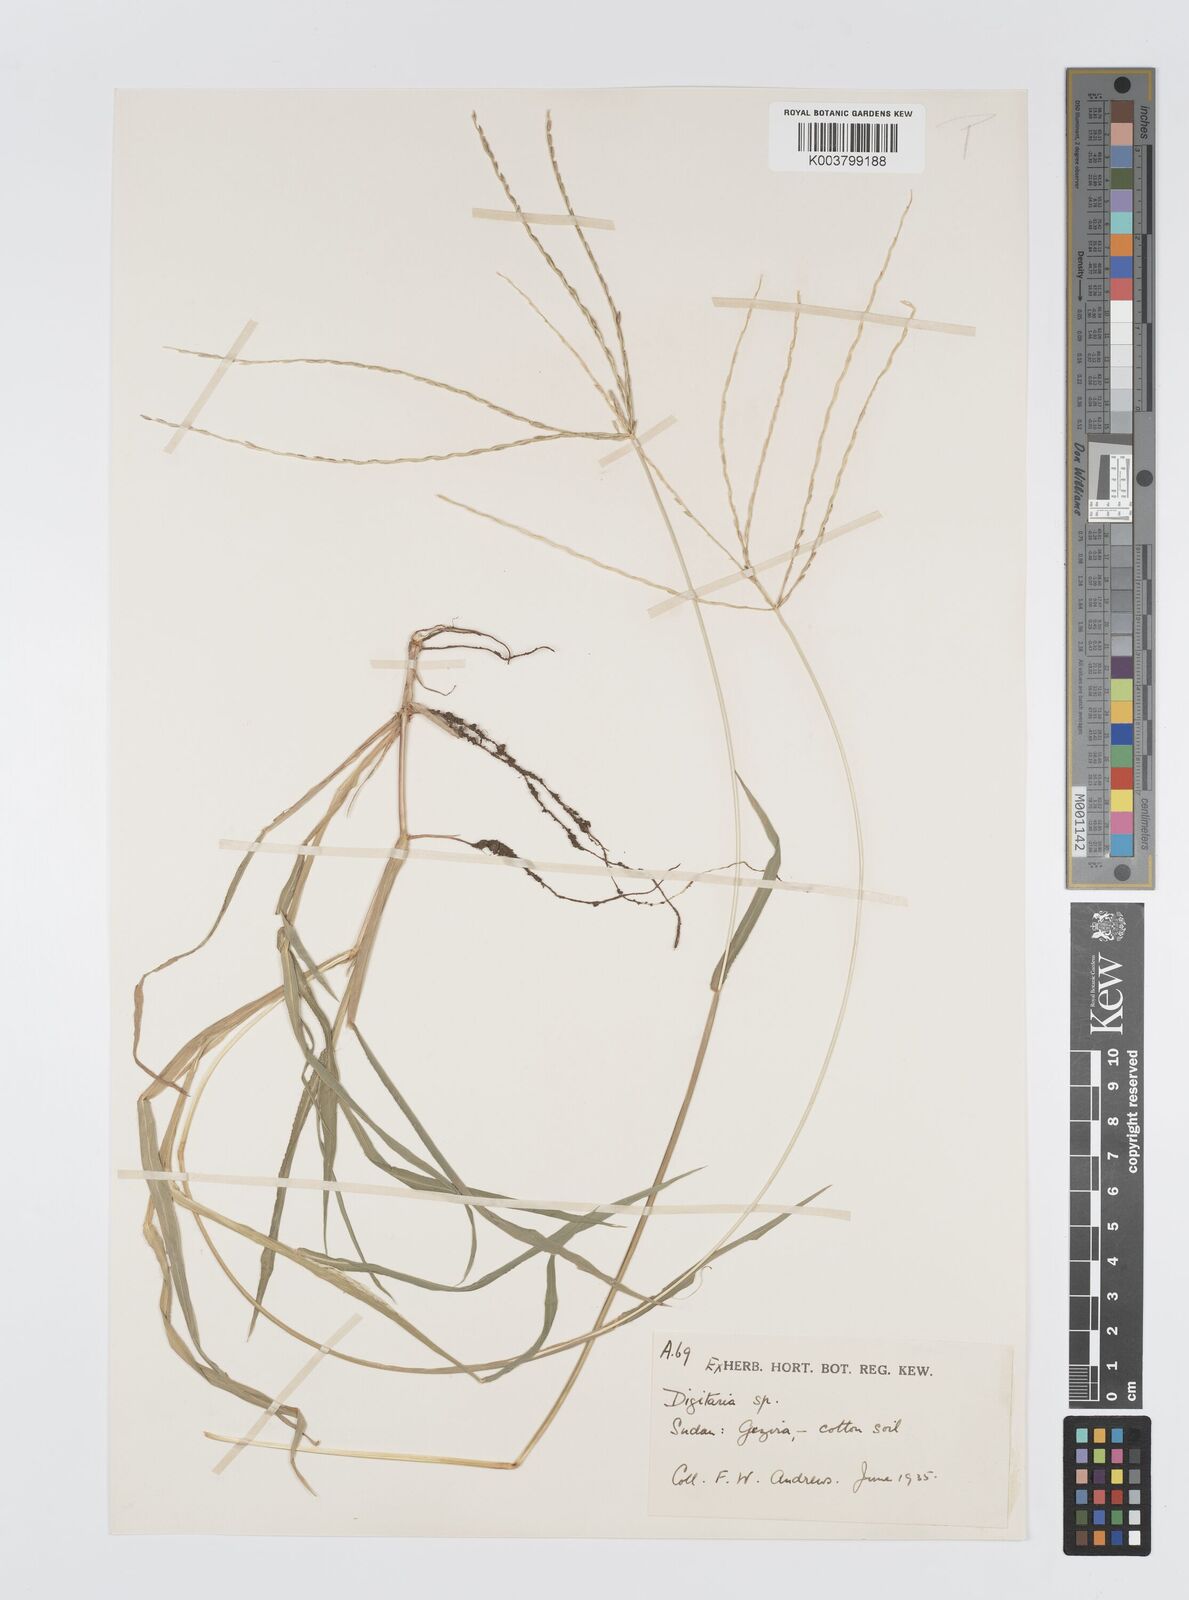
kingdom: Plantae
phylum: Tracheophyta
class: Liliopsida
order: Poales
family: Poaceae
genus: Digitaria
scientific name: Digitaria spec
